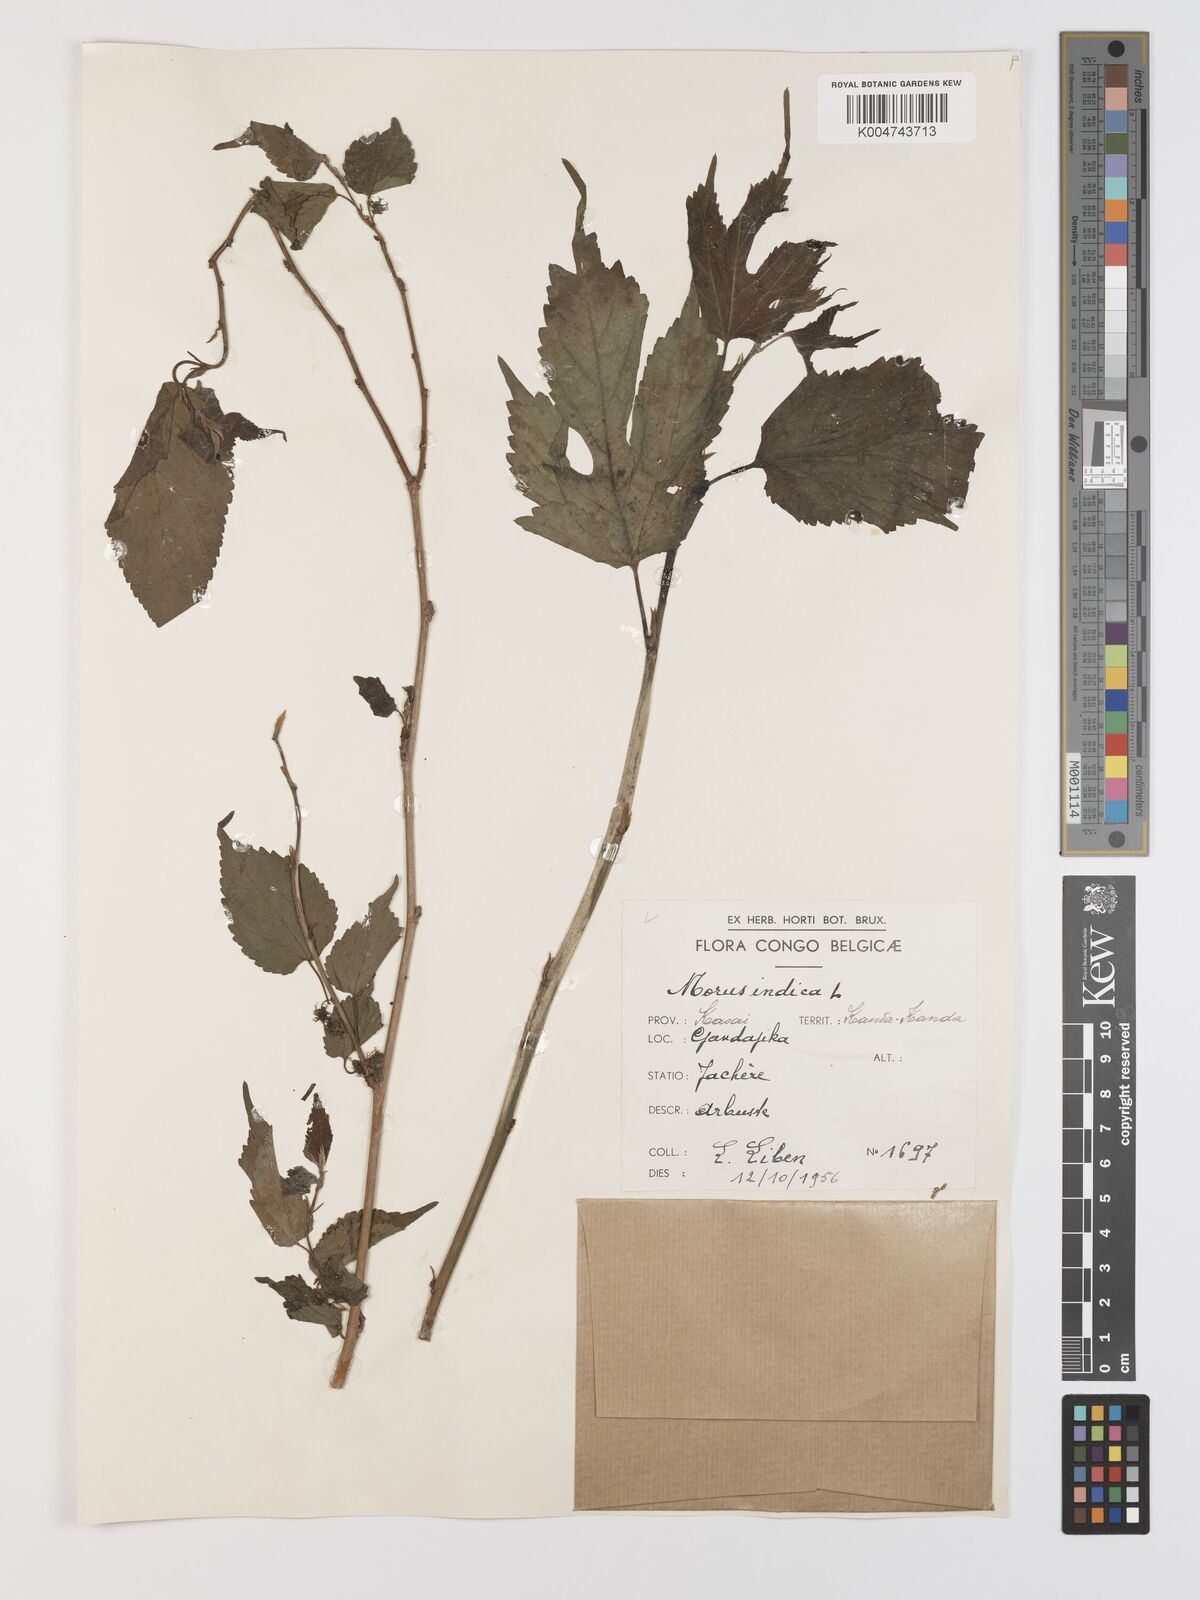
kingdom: Plantae
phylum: Tracheophyta
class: Magnoliopsida
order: Rosales
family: Moraceae
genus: Morus
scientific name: Morus indica
